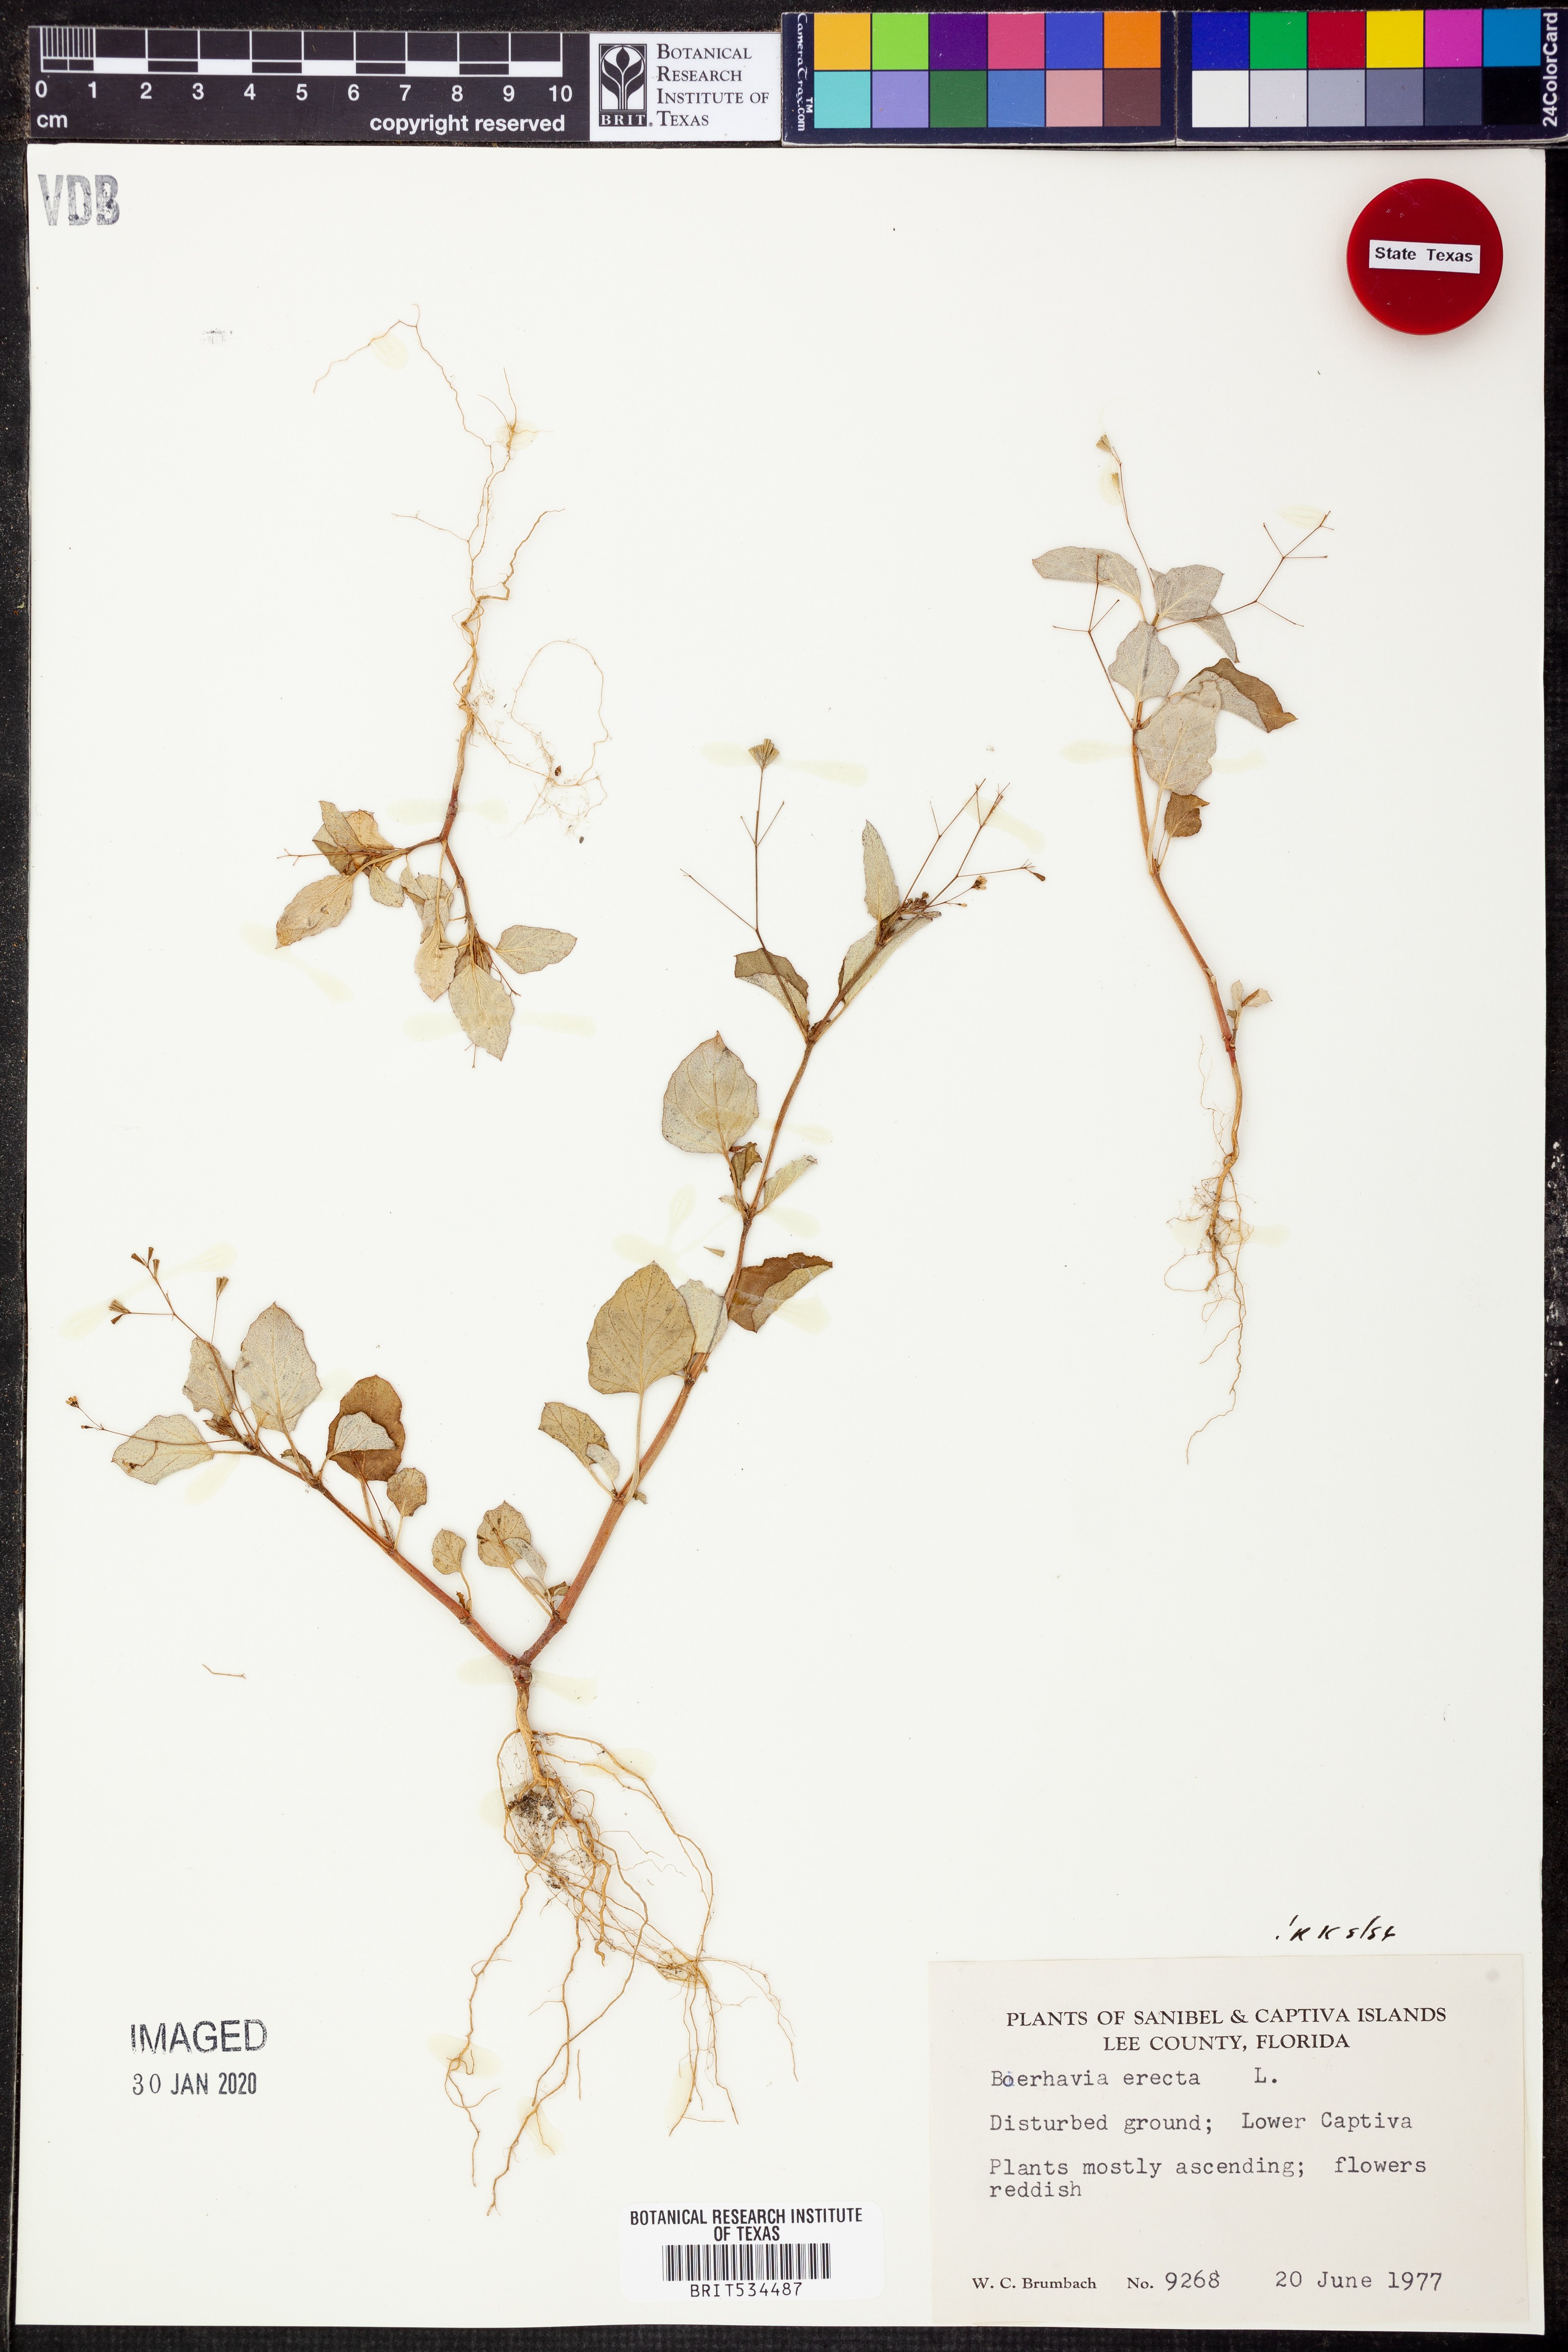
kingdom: Plantae
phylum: Tracheophyta
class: Magnoliopsida
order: Caryophyllales
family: Nyctaginaceae
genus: Boerhavia
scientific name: Boerhavia erecta
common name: Erect spiderling
